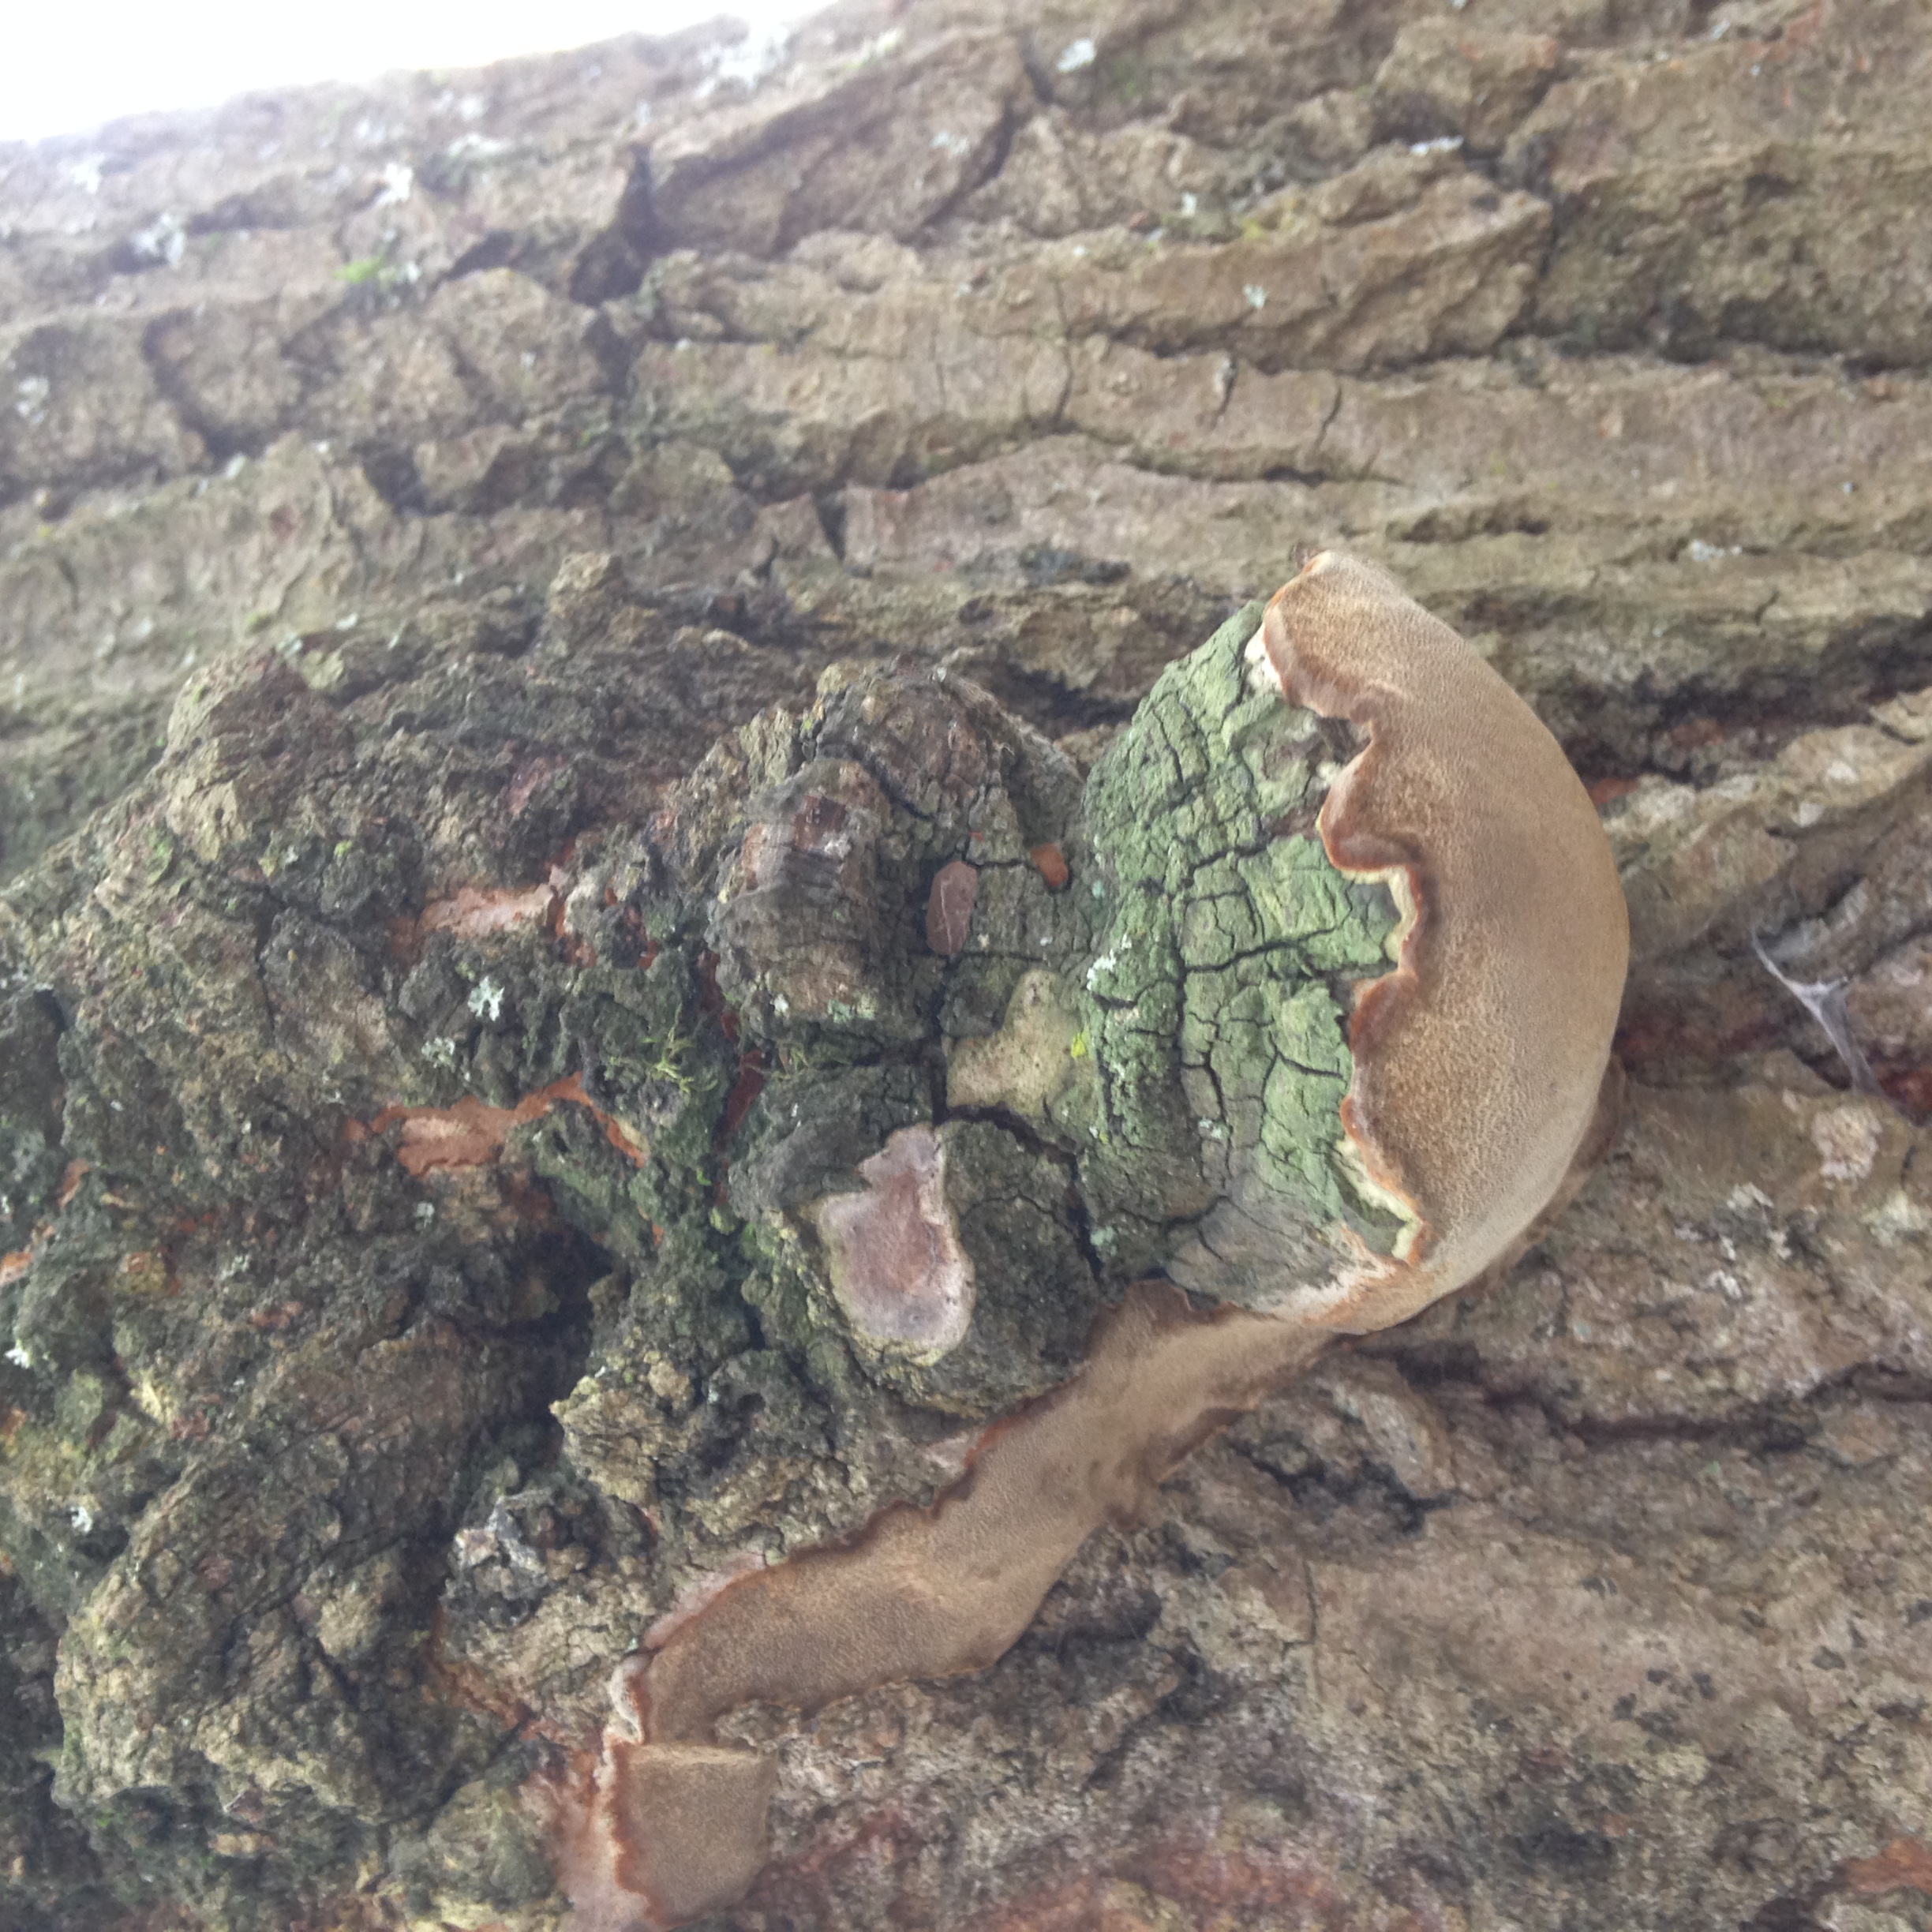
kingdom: Fungi
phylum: Basidiomycota
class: Agaricomycetes
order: Hymenochaetales
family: Hymenochaetaceae
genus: Phellinus
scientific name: Phellinus tremulae
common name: Aspen bracket
